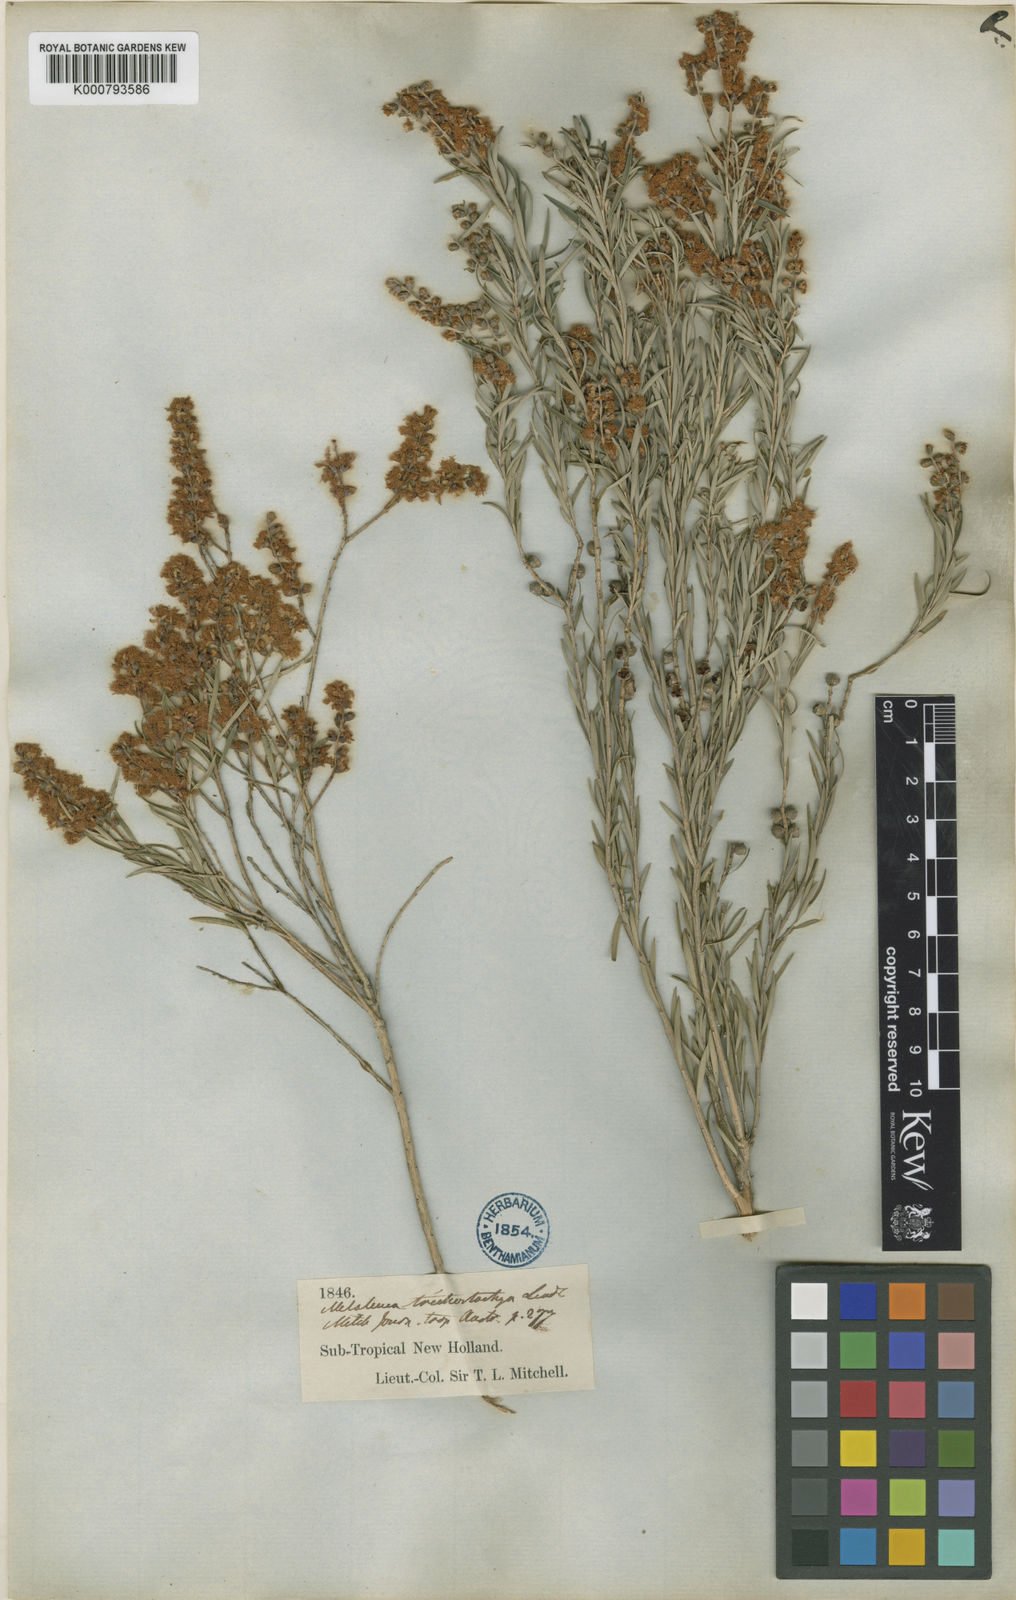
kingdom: Plantae
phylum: Tracheophyta
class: Magnoliopsida
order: Myrtales
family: Myrtaceae
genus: Melaleuca
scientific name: Melaleuca trichostachya
